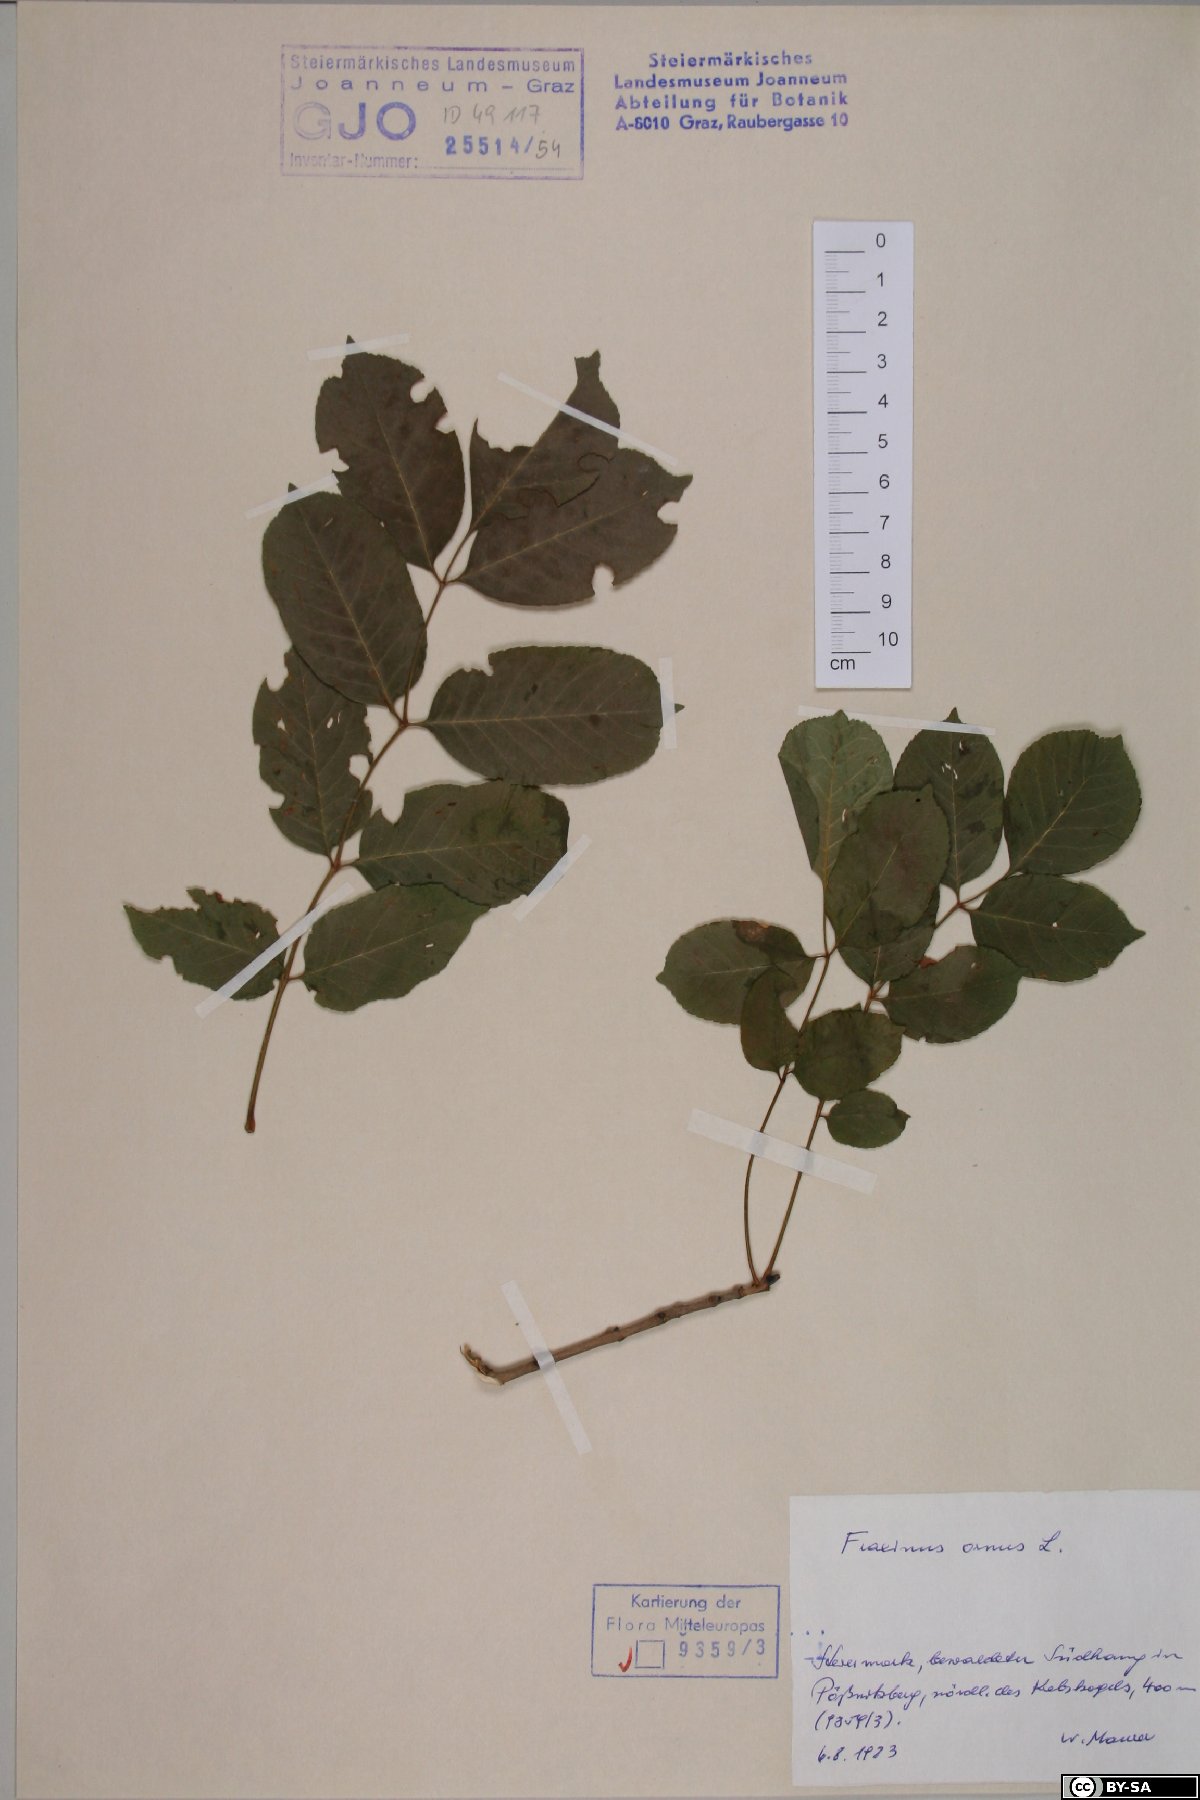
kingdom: Plantae
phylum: Tracheophyta
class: Magnoliopsida
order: Lamiales
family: Oleaceae
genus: Fraxinus
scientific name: Fraxinus ornus
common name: Manna ash
